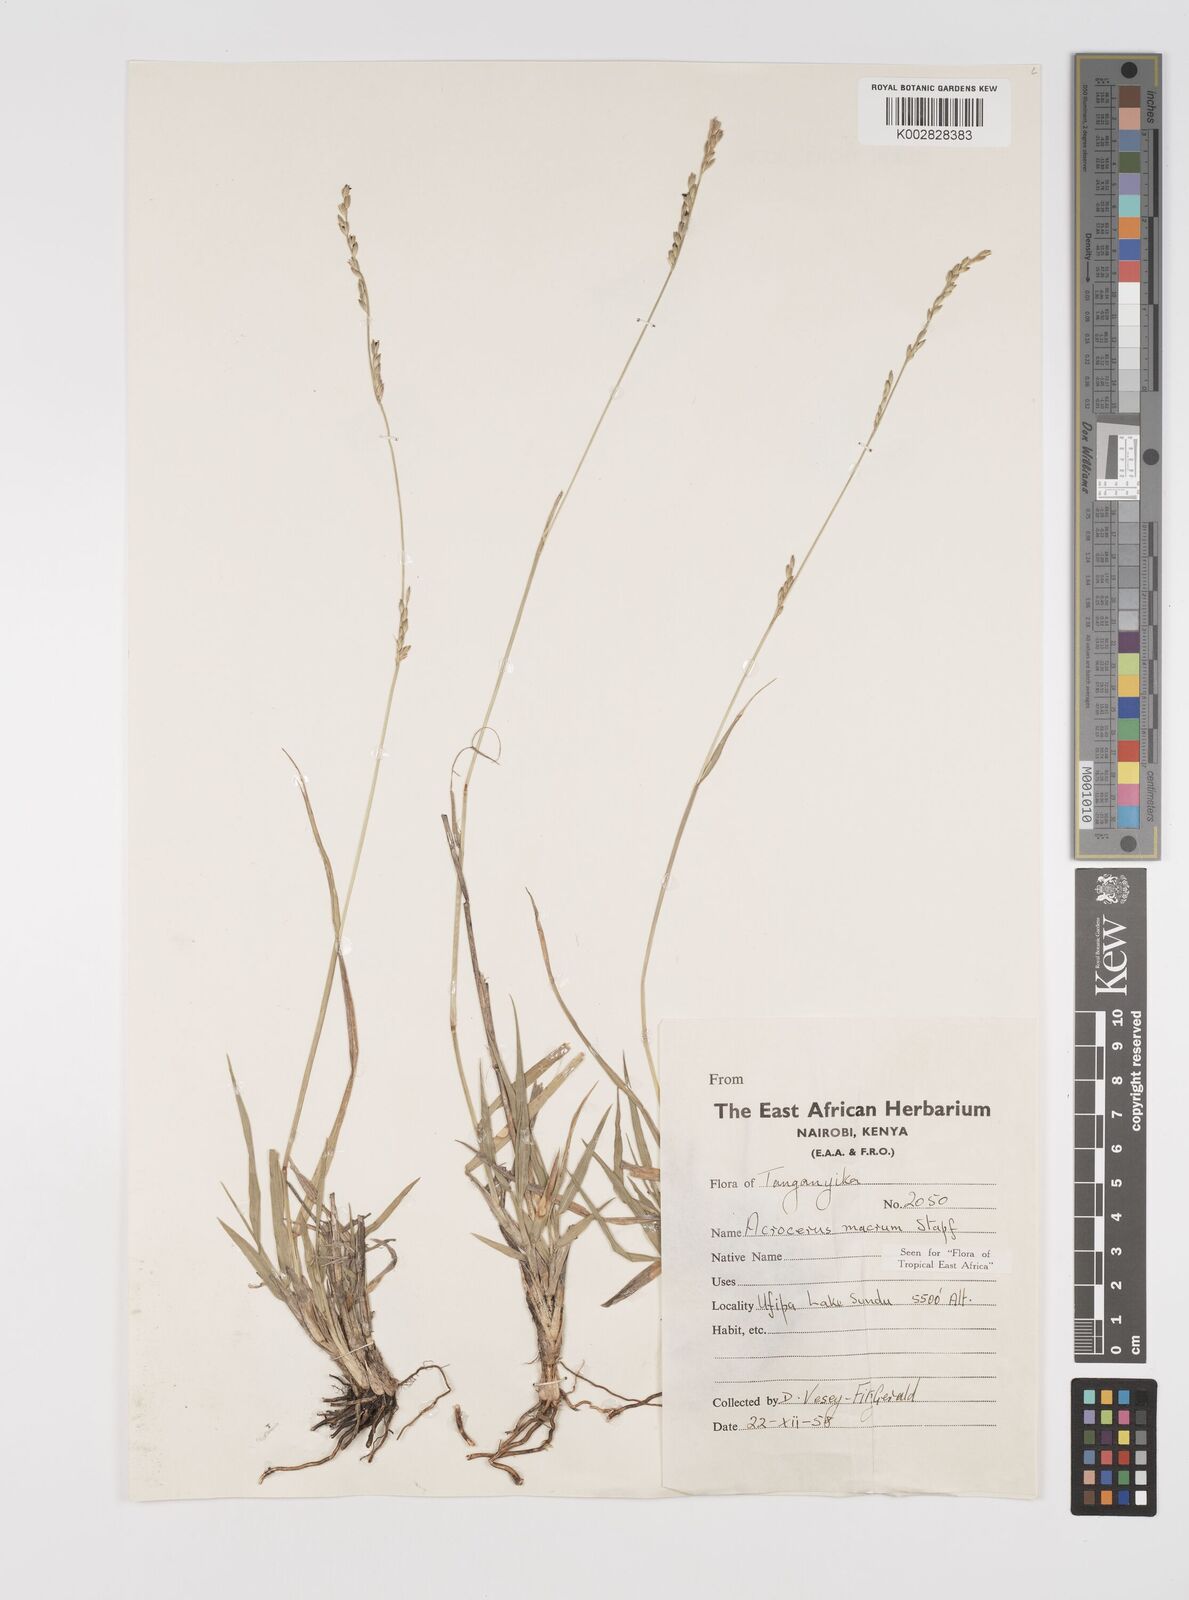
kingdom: Plantae
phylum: Tracheophyta
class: Liliopsida
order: Poales
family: Poaceae
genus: Acroceras
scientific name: Acroceras macrum
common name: Nyl grass
